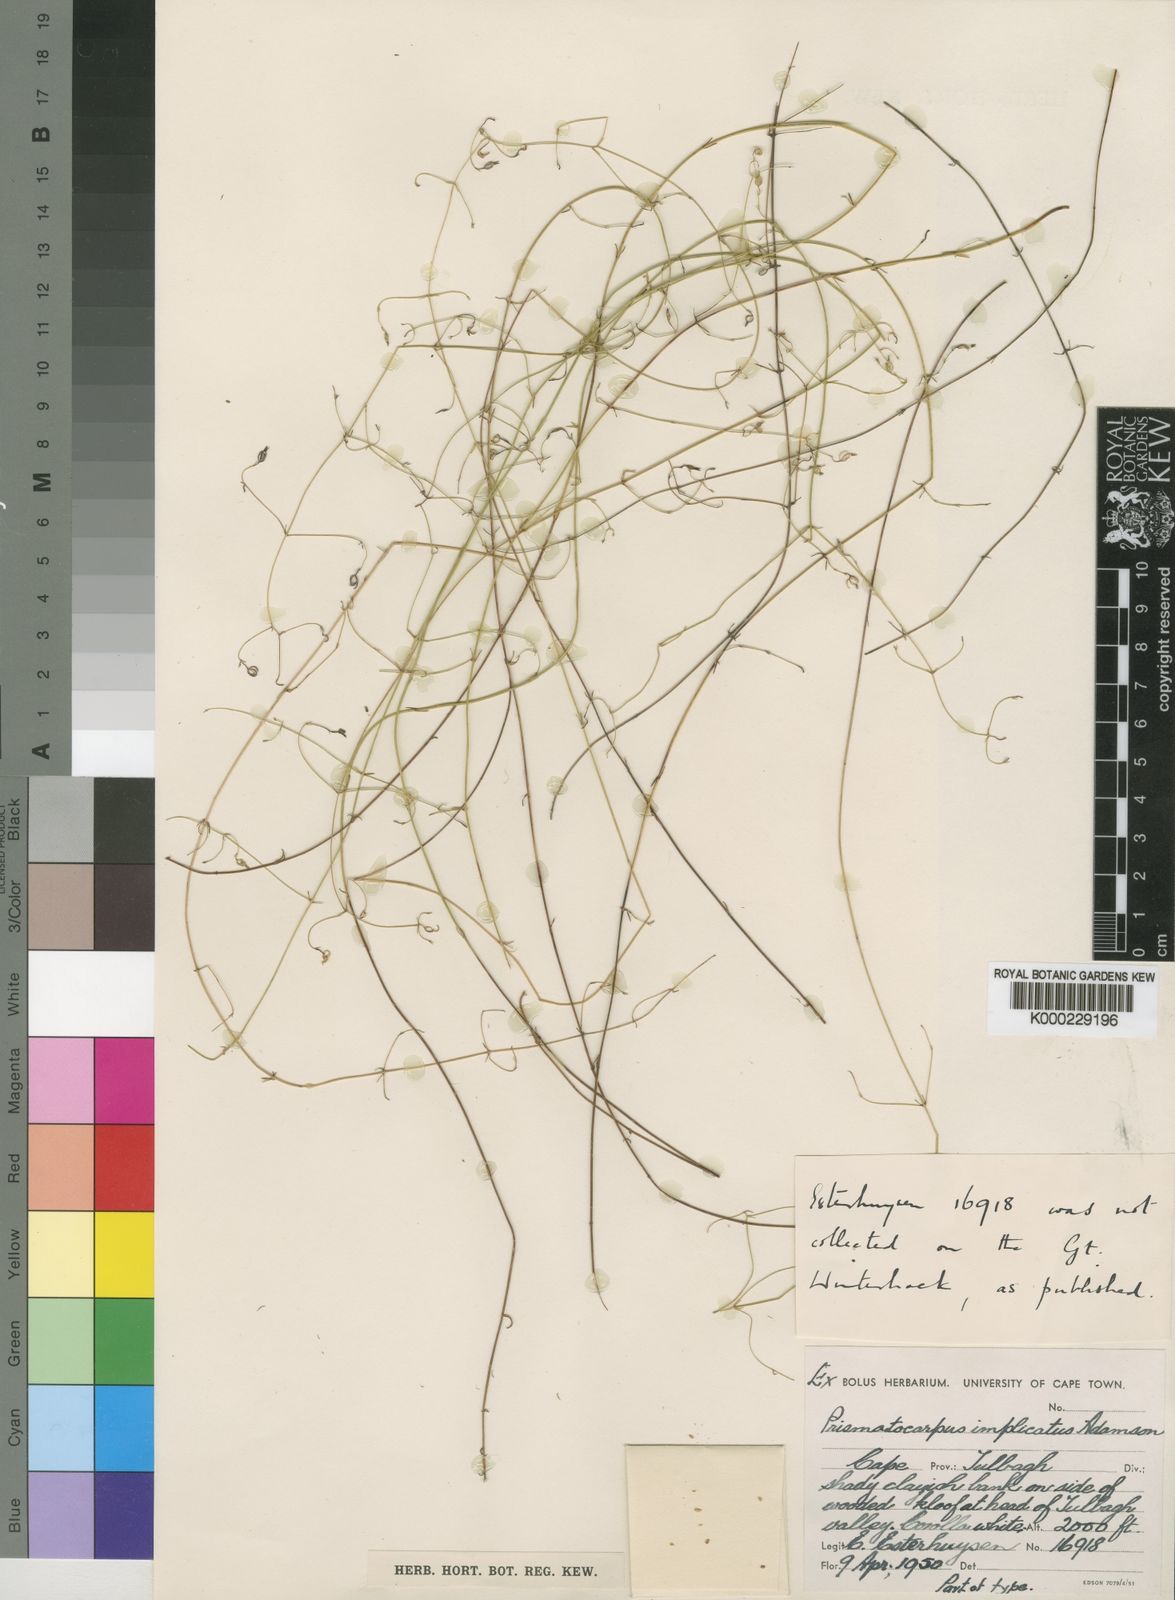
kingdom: Plantae
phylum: Tracheophyta
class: Magnoliopsida
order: Asterales
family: Campanulaceae
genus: Prismatocarpus
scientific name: Prismatocarpus implicatus
